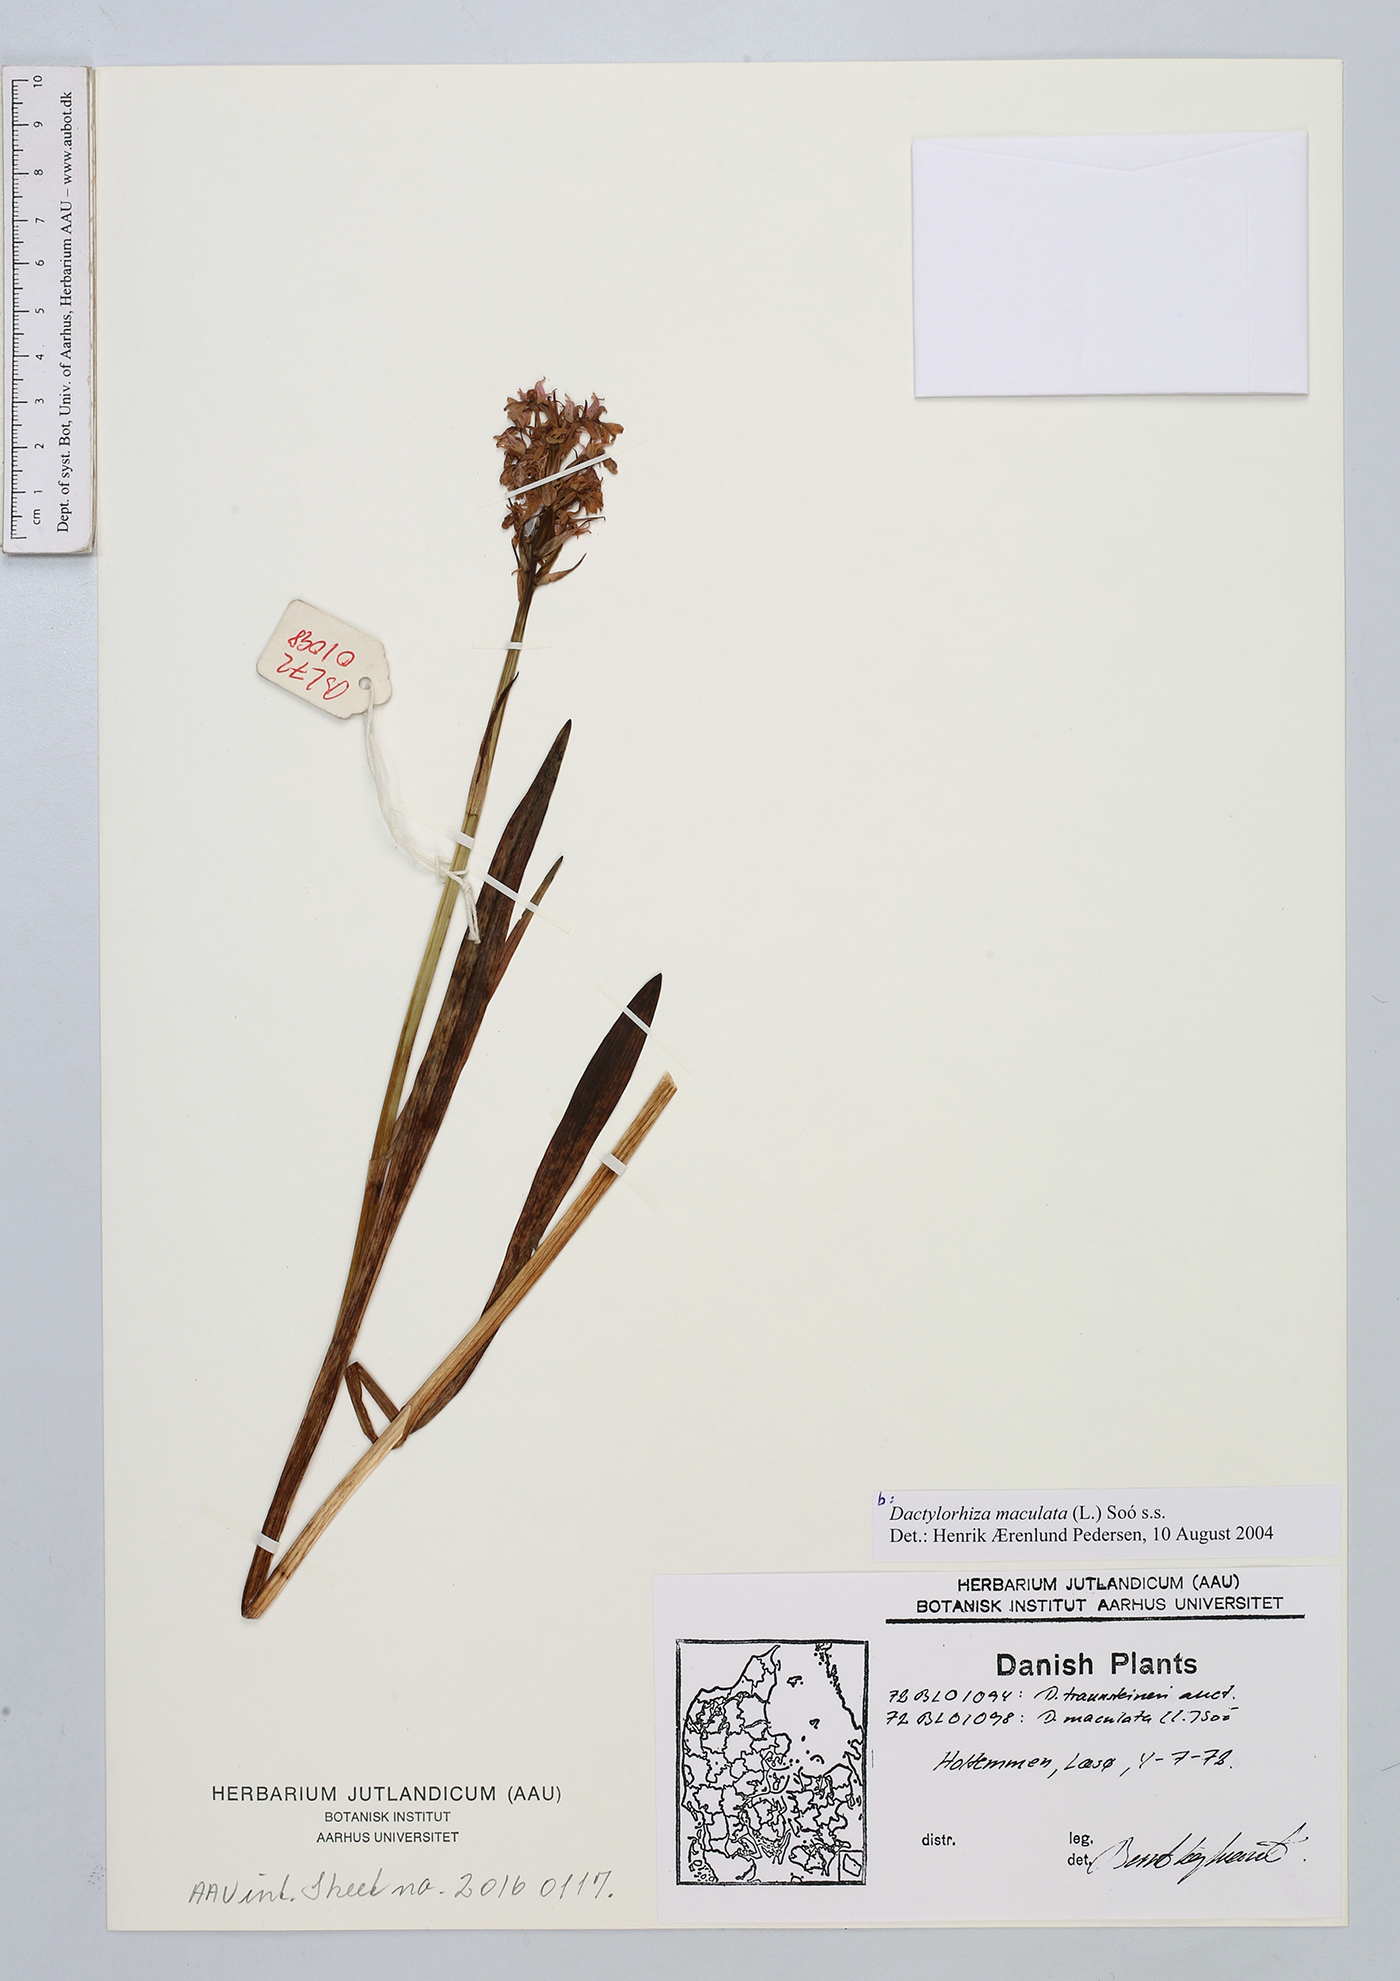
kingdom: Plantae
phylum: Tracheophyta
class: Liliopsida
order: Asparagales
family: Orchidaceae
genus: Dactylorhiza
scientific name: Dactylorhiza maculata
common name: Heath spotted-orchid
